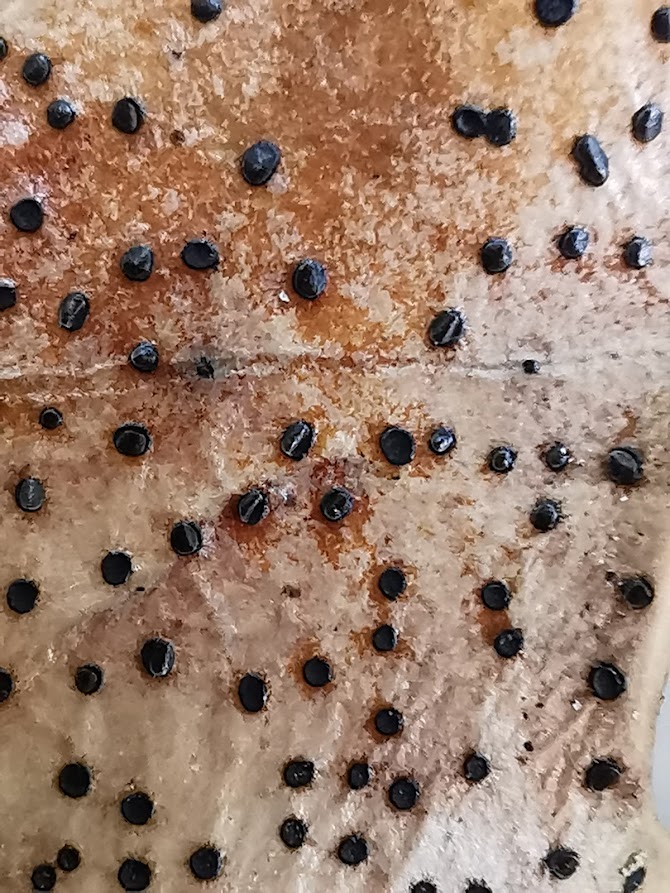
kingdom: Fungi
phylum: Ascomycota
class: Leotiomycetes
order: Helotiales
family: Cenangiaceae
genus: Trochila
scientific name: Trochila ilicina
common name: kristtorn-lågskive
